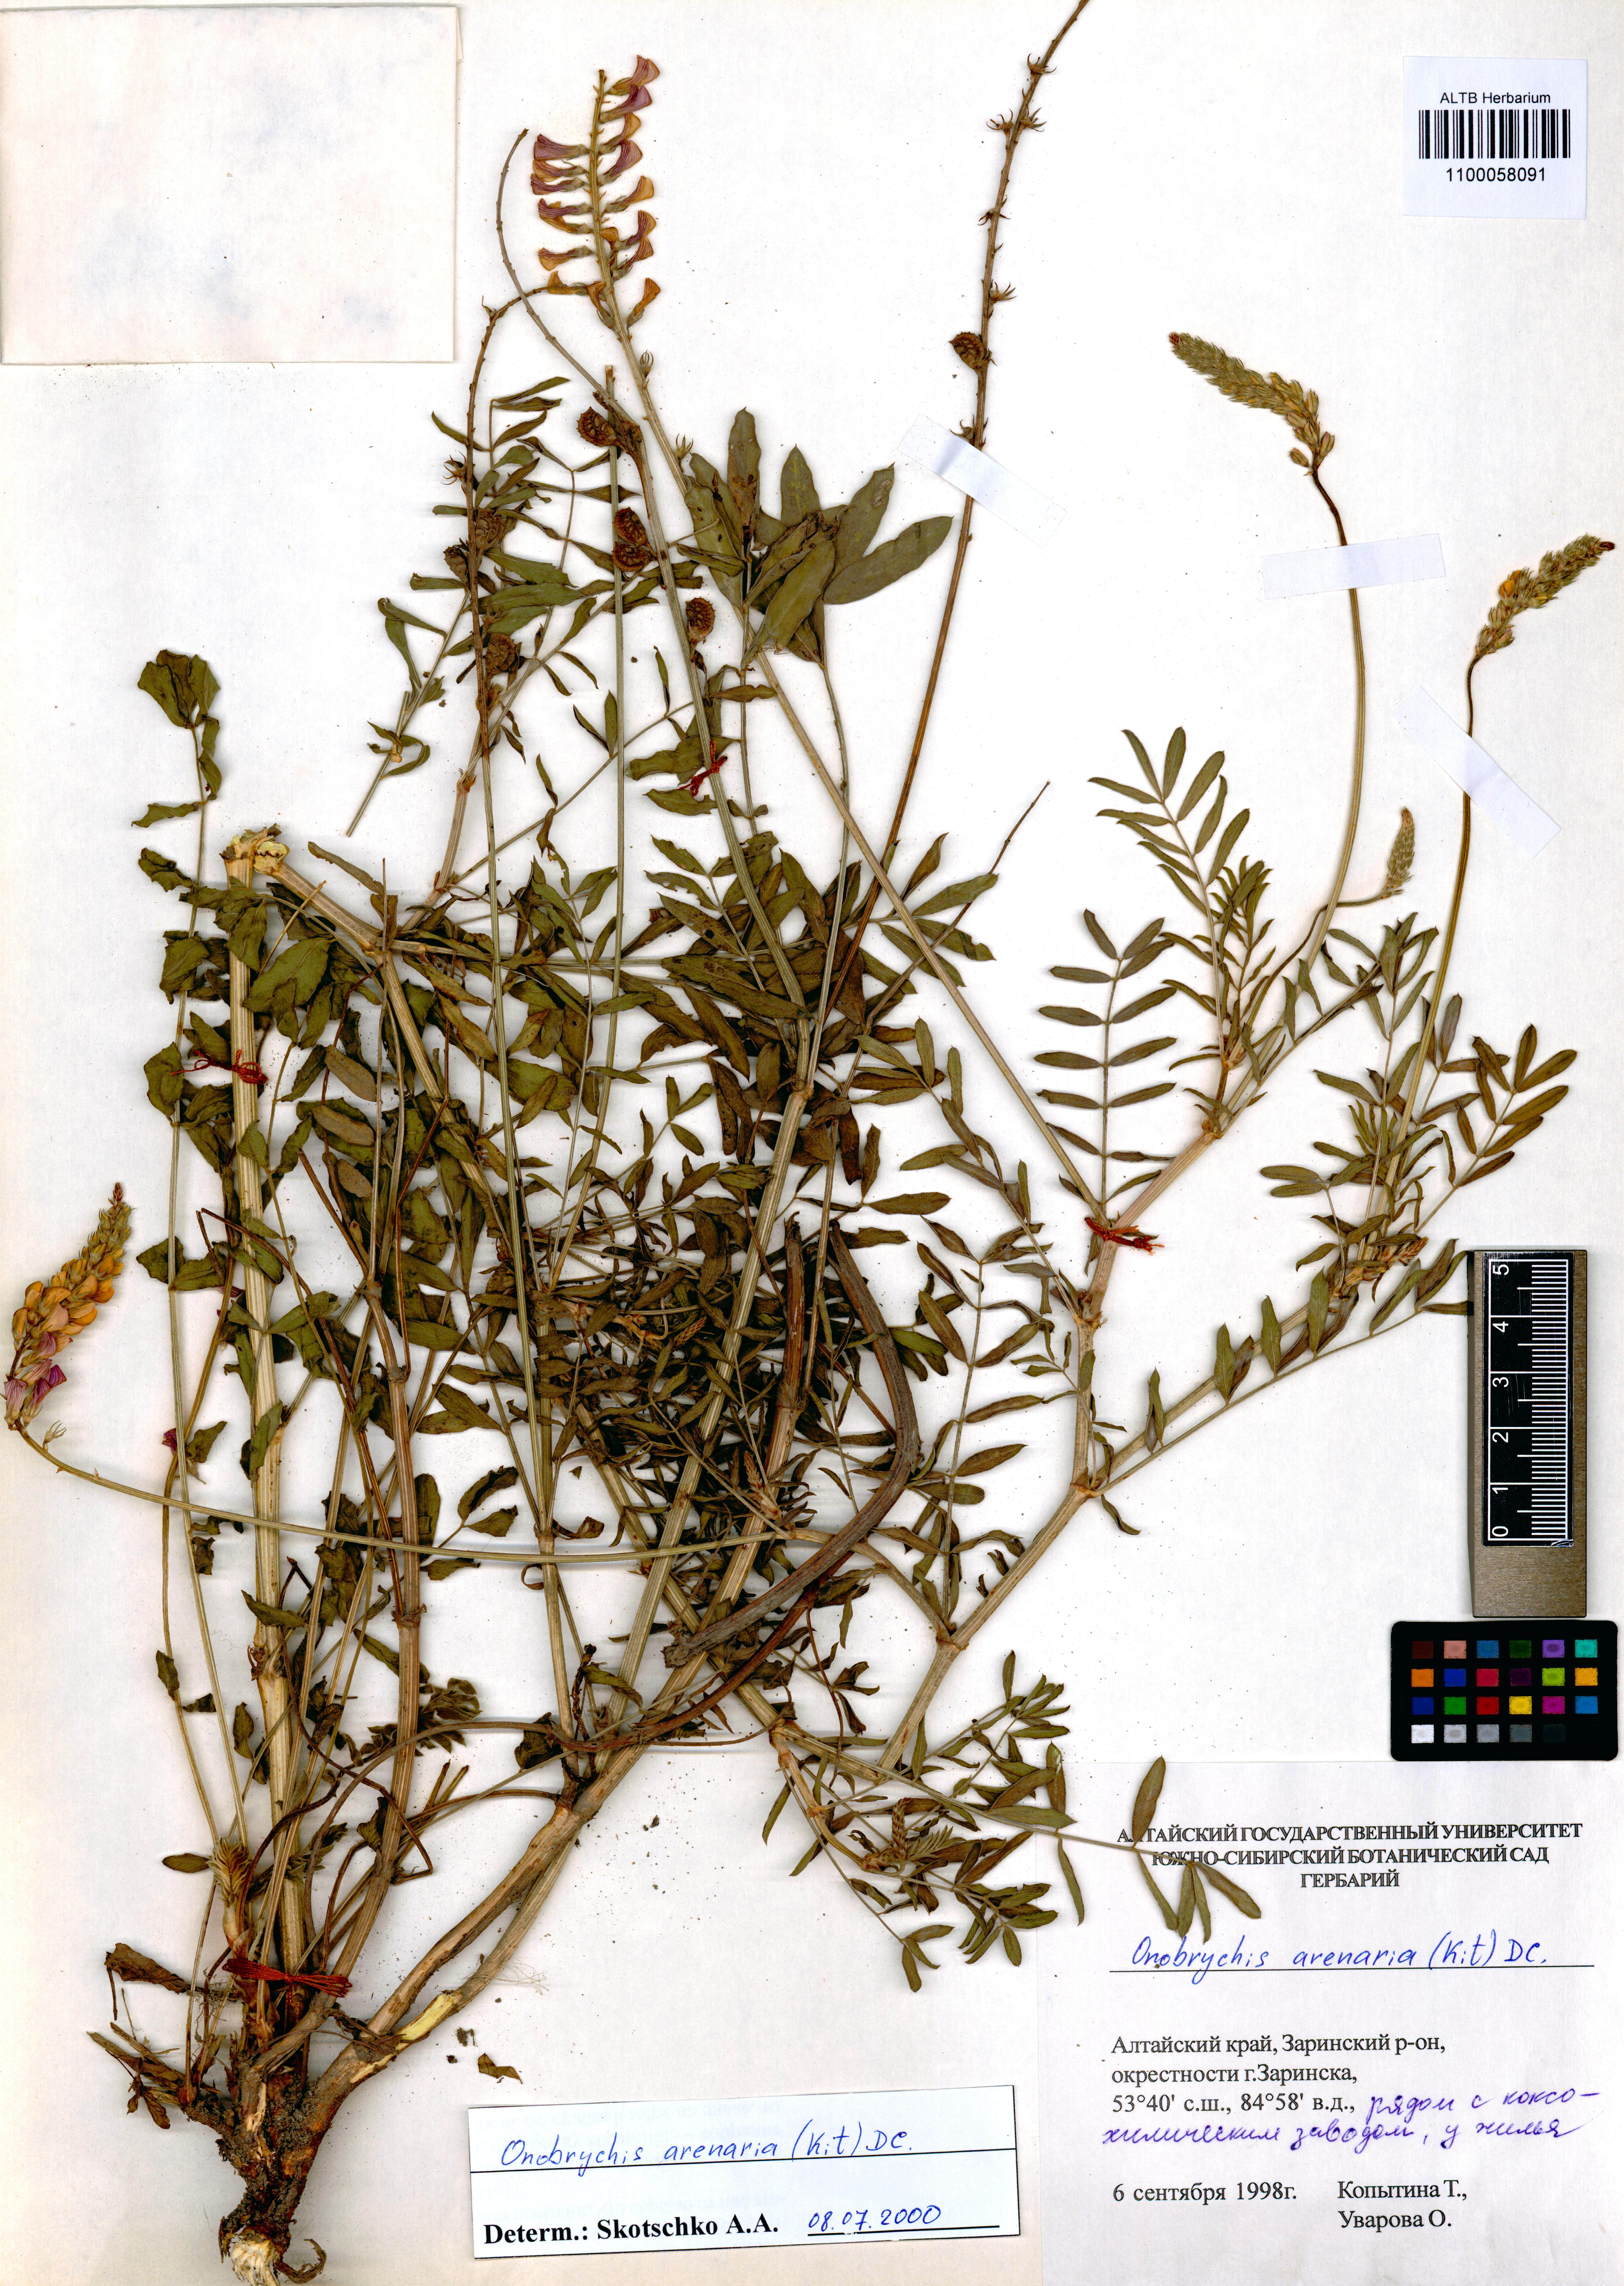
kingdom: Plantae
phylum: Tracheophyta
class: Magnoliopsida
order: Fabales
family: Fabaceae
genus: Onobrychis
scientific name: Onobrychis arenaria
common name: Sand esparcet
